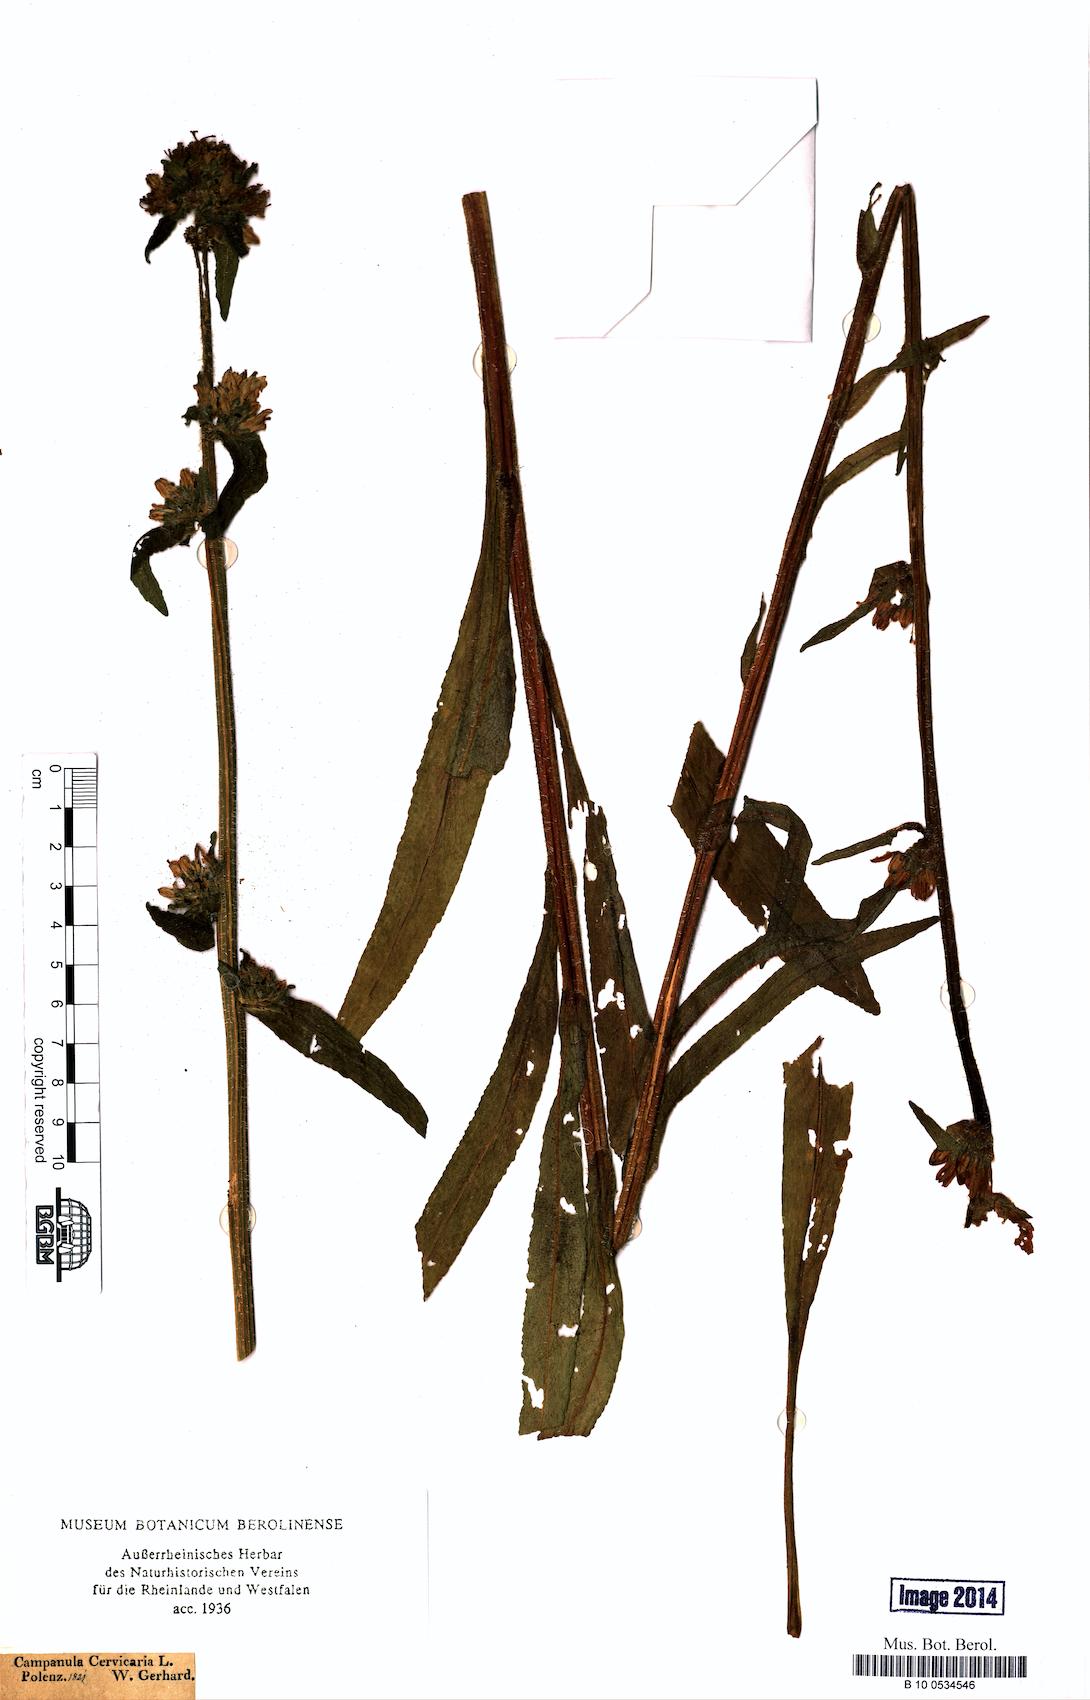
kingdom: Plantae
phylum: Tracheophyta
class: Magnoliopsida
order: Asterales
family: Campanulaceae
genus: Campanula
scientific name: Campanula cervicaria
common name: Bristly bellflower
